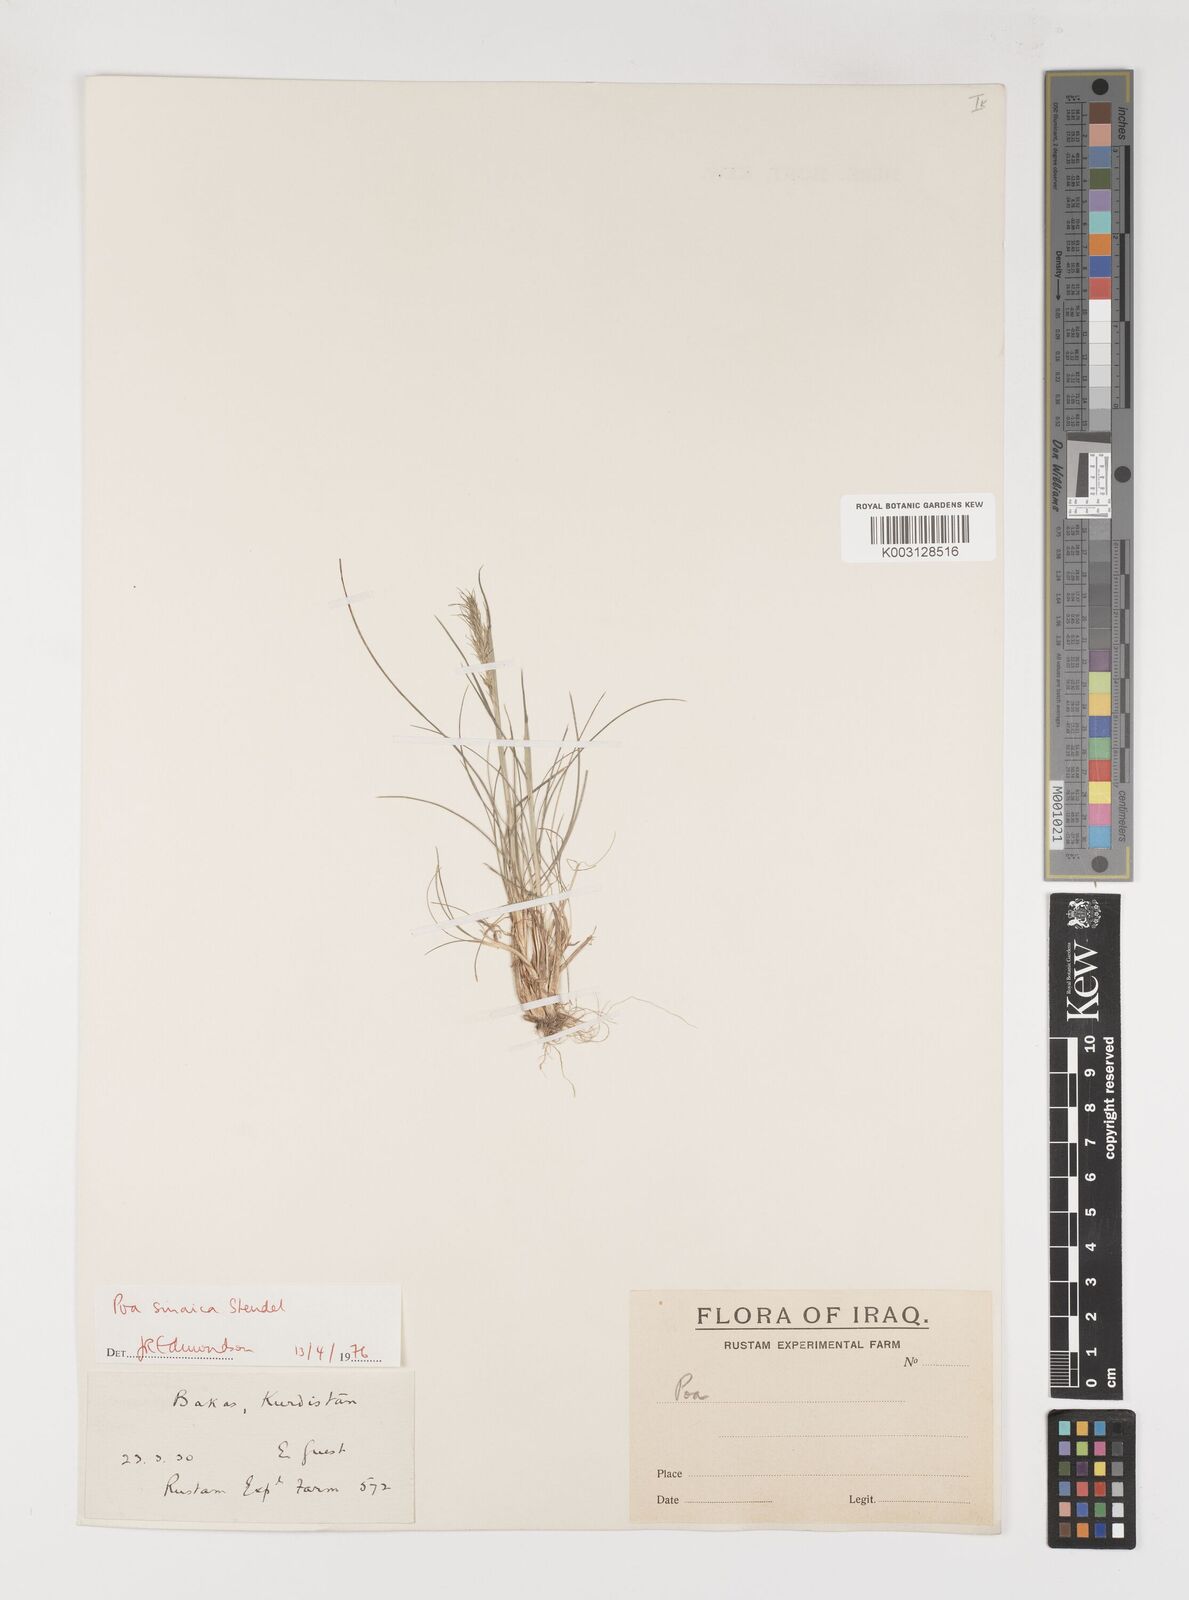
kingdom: Plantae
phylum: Tracheophyta
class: Liliopsida
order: Poales
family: Poaceae
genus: Poa
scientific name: Poa sinaica
